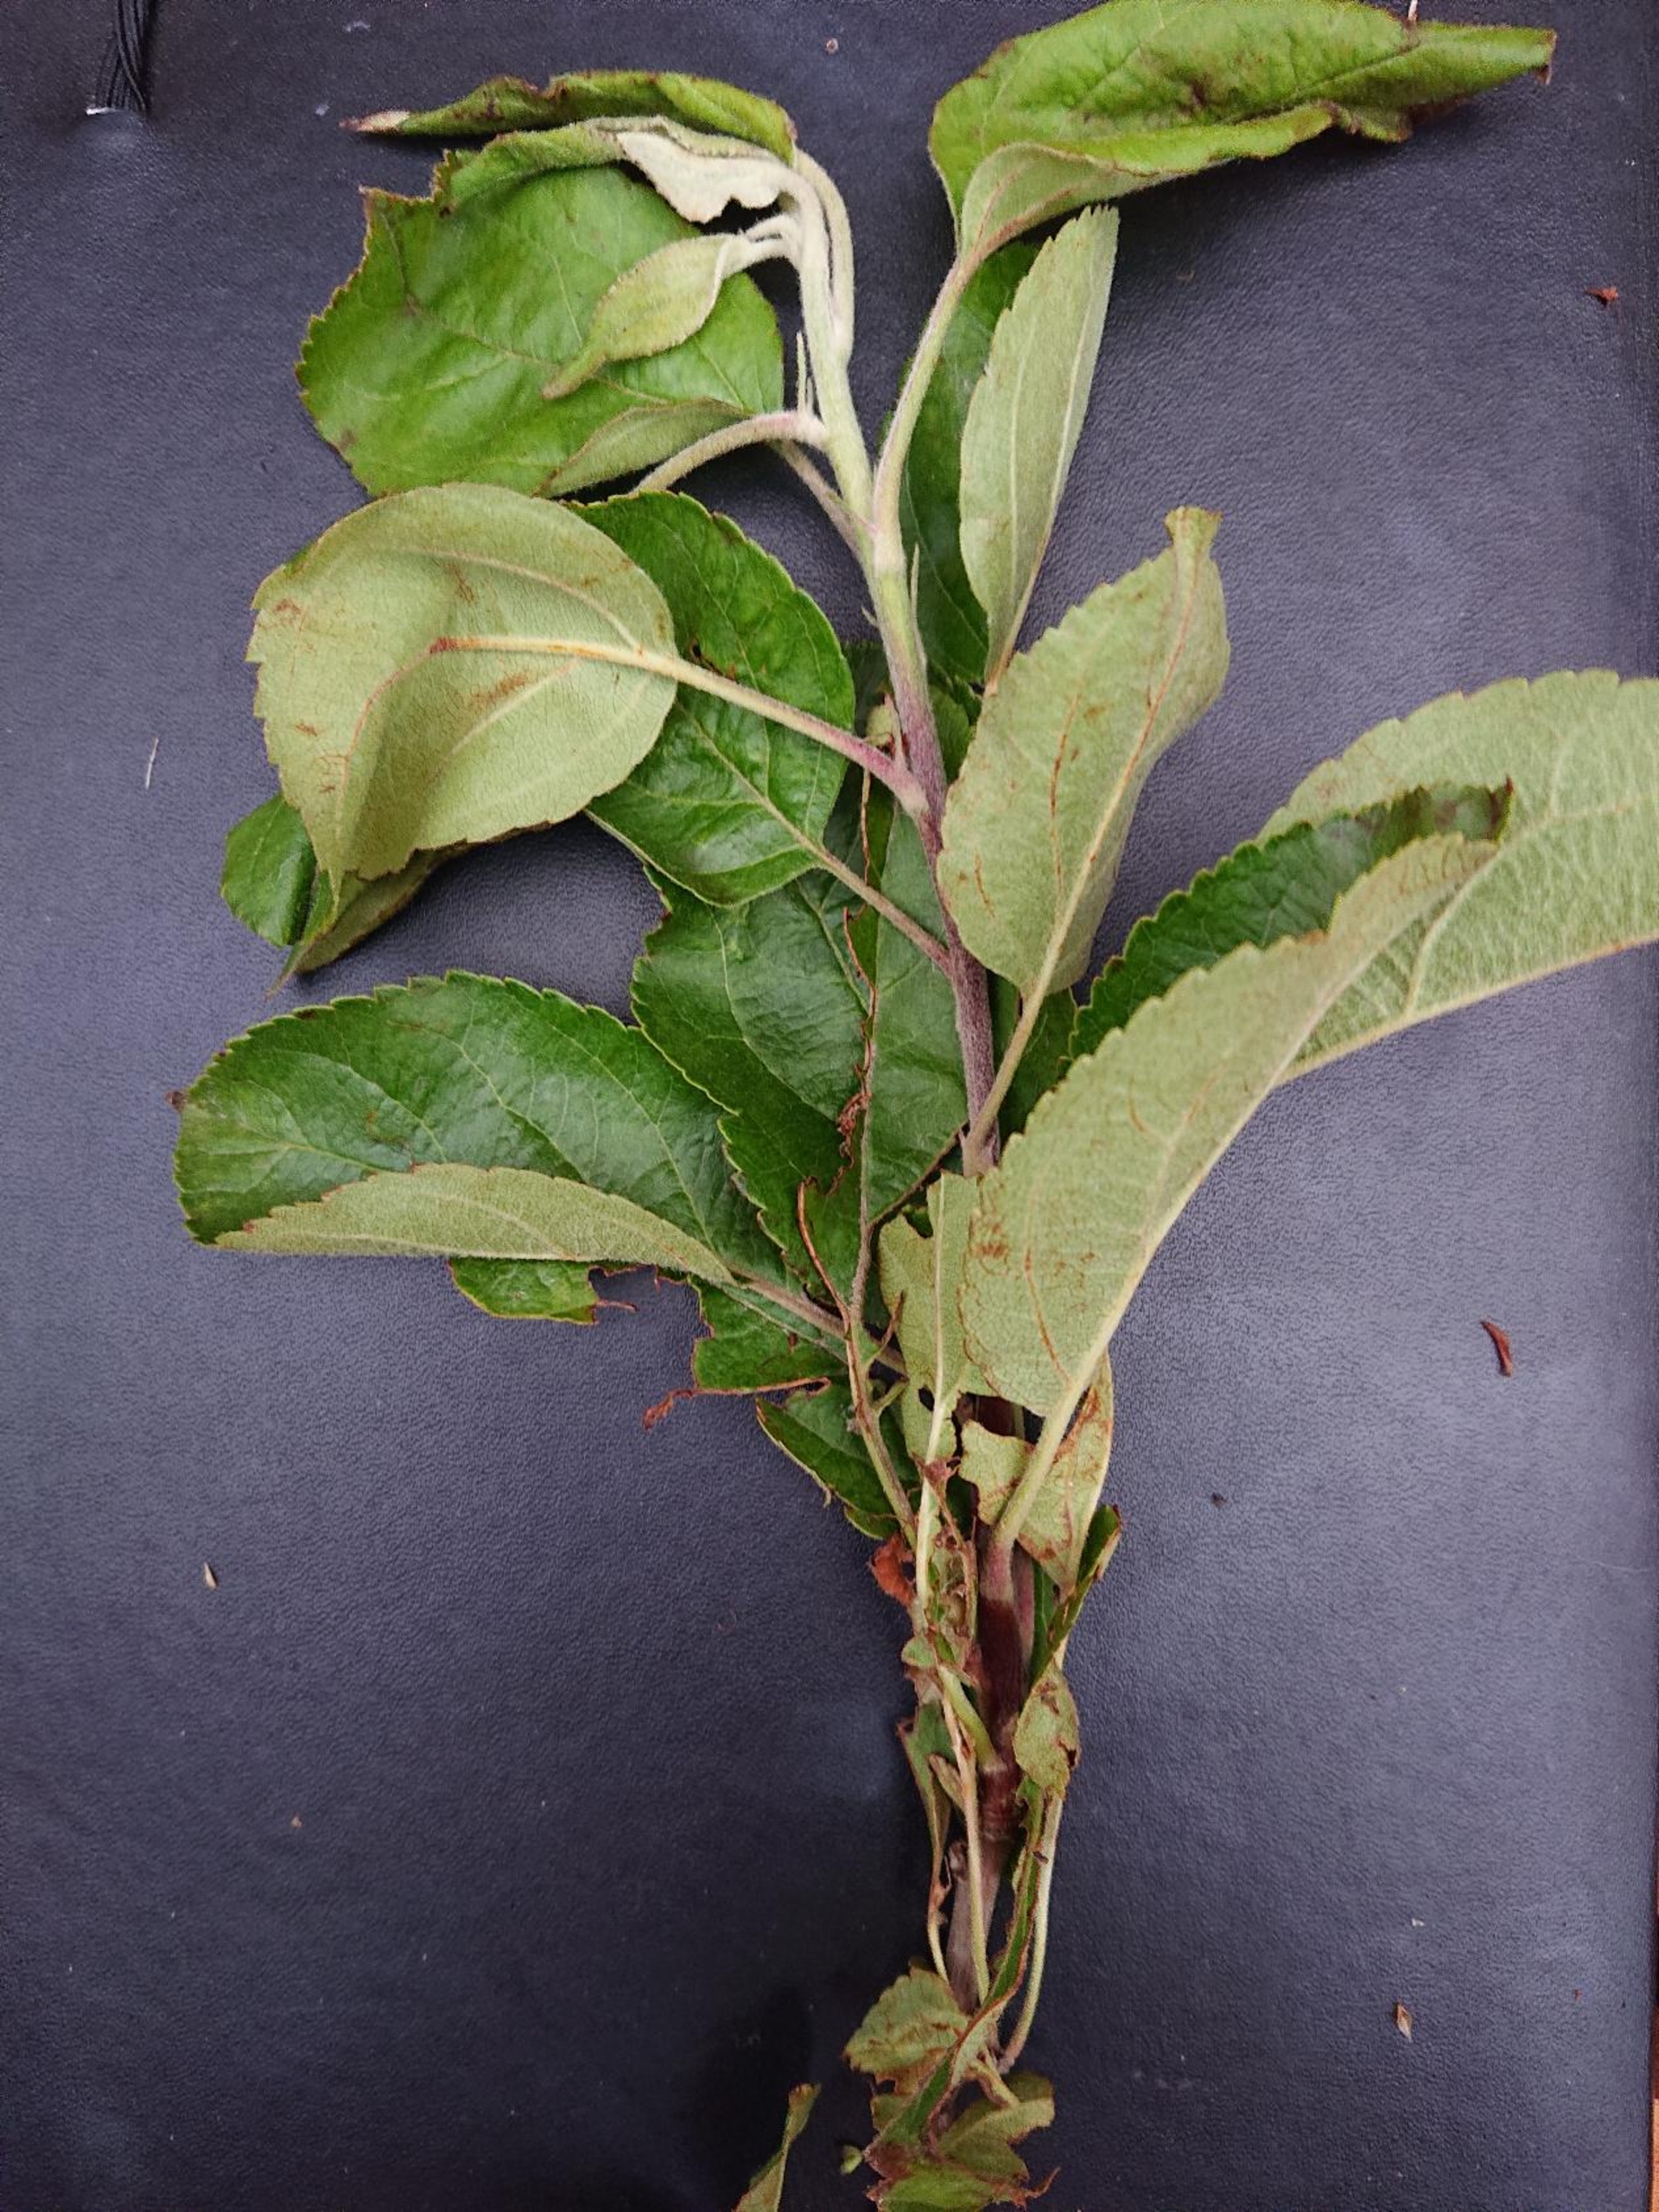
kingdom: Plantae
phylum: Tracheophyta
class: Magnoliopsida
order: Rosales
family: Rosaceae
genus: Malus
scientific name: Malus domestica
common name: Sød-æble
